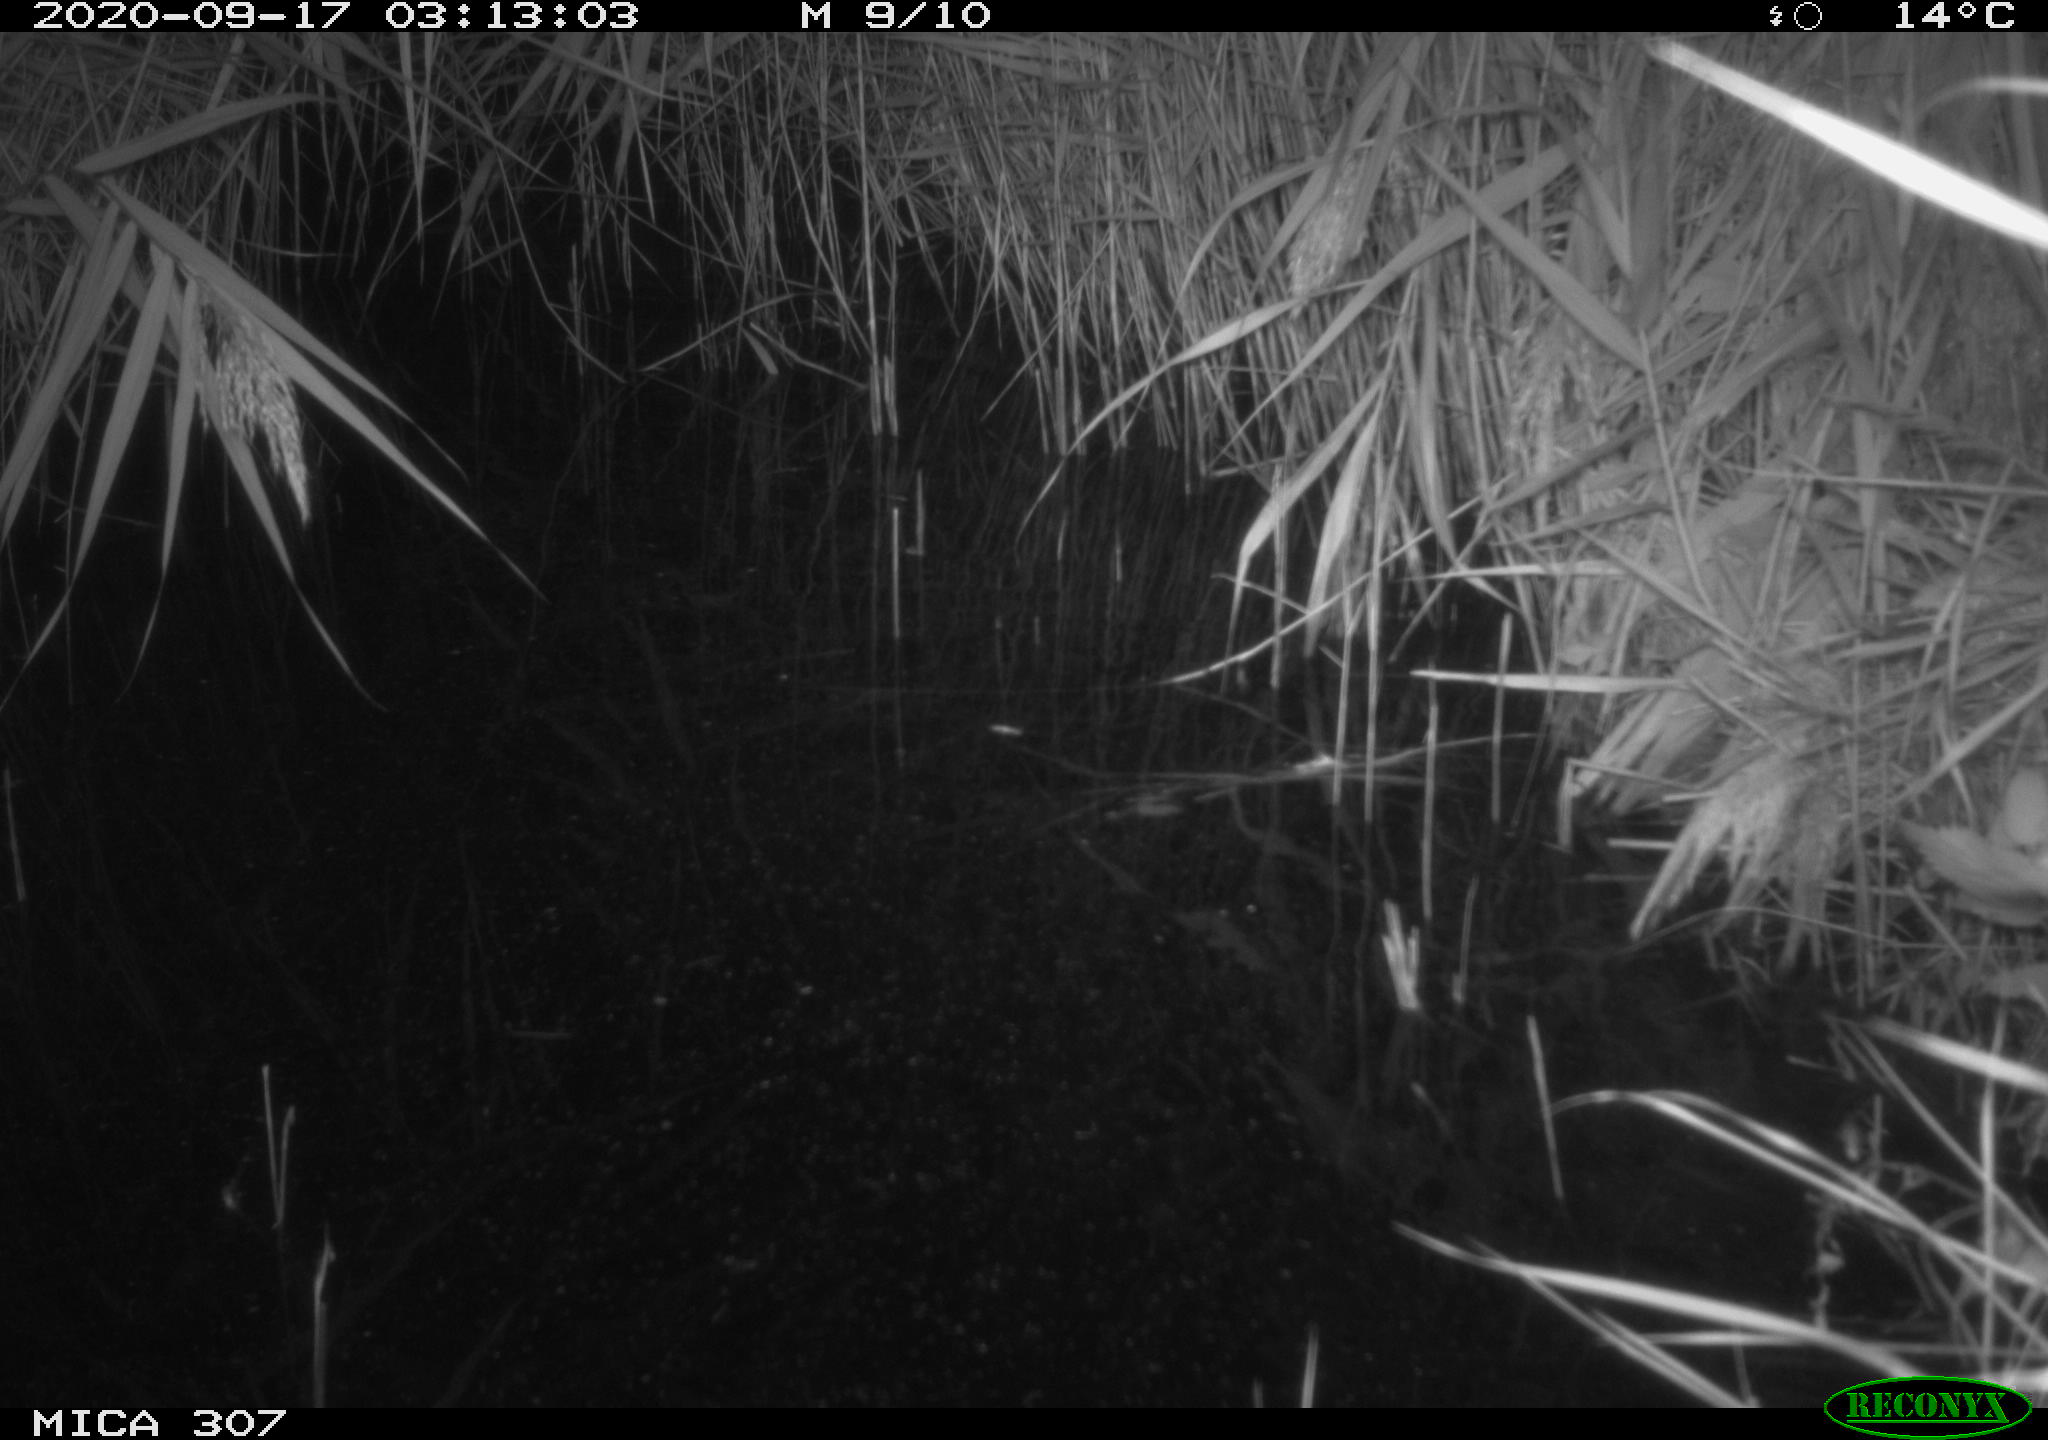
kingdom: Animalia
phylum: Chordata
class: Mammalia
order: Rodentia
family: Muridae
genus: Rattus
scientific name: Rattus norvegicus
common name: Brown rat
